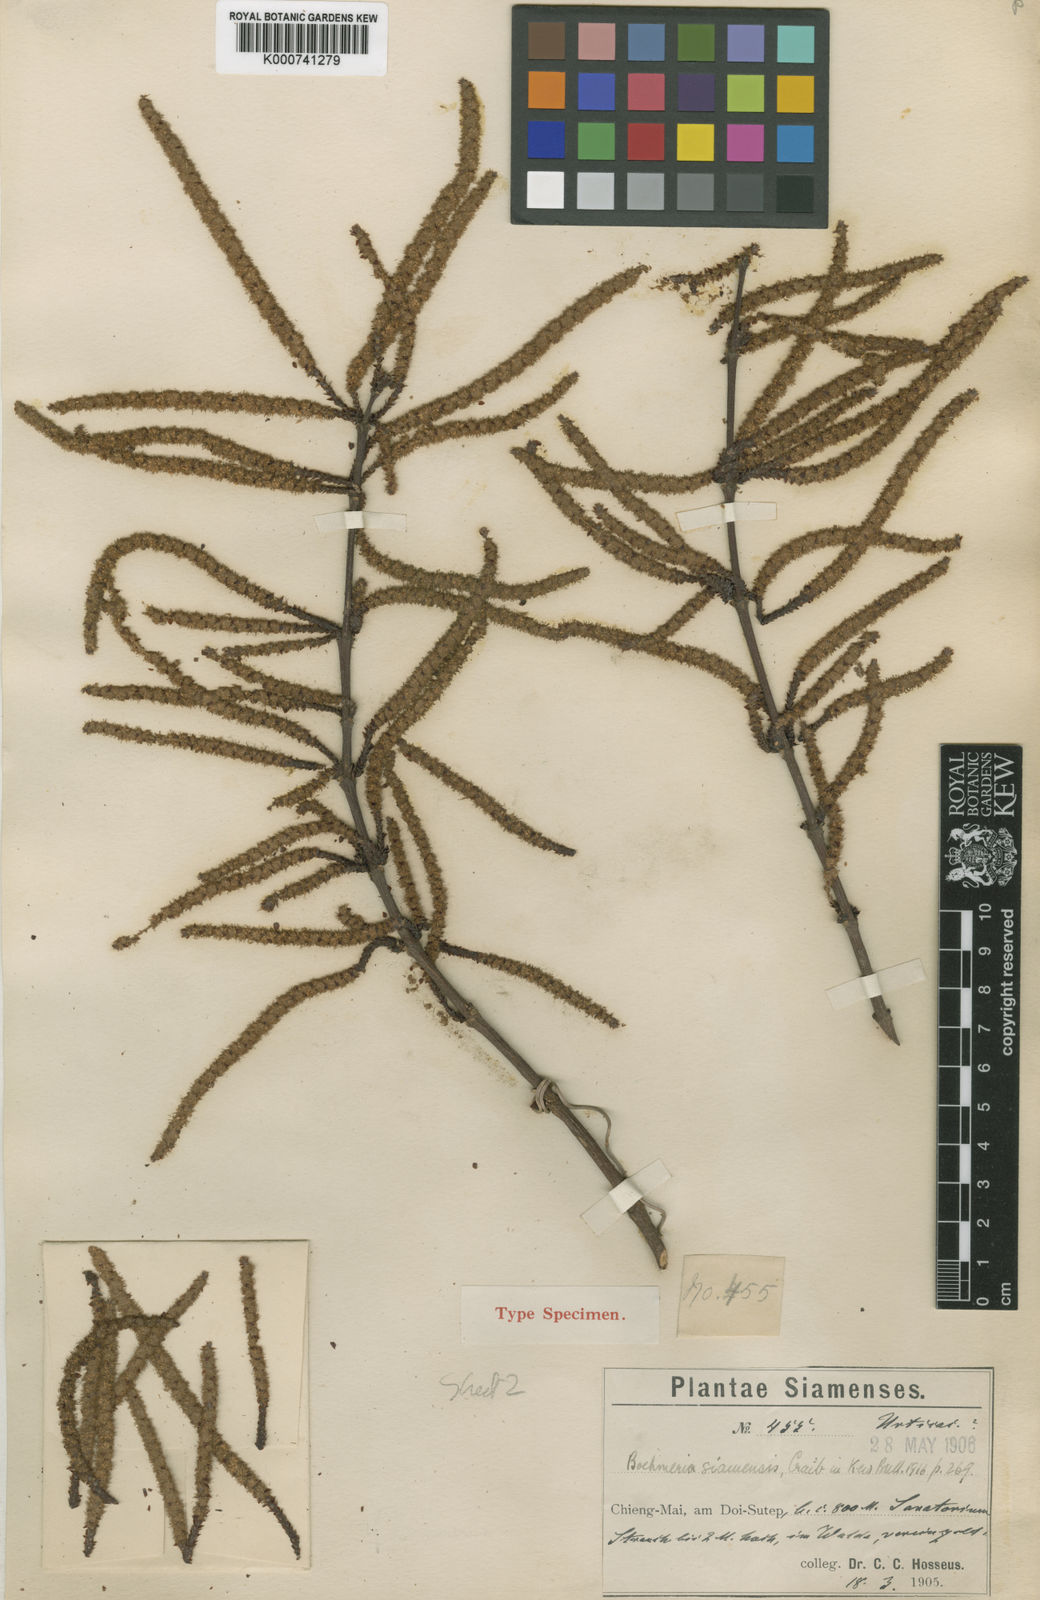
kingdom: Plantae
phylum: Tracheophyta
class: Magnoliopsida
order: Rosales
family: Urticaceae
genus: Boehmeria
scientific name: Boehmeria siamensis
